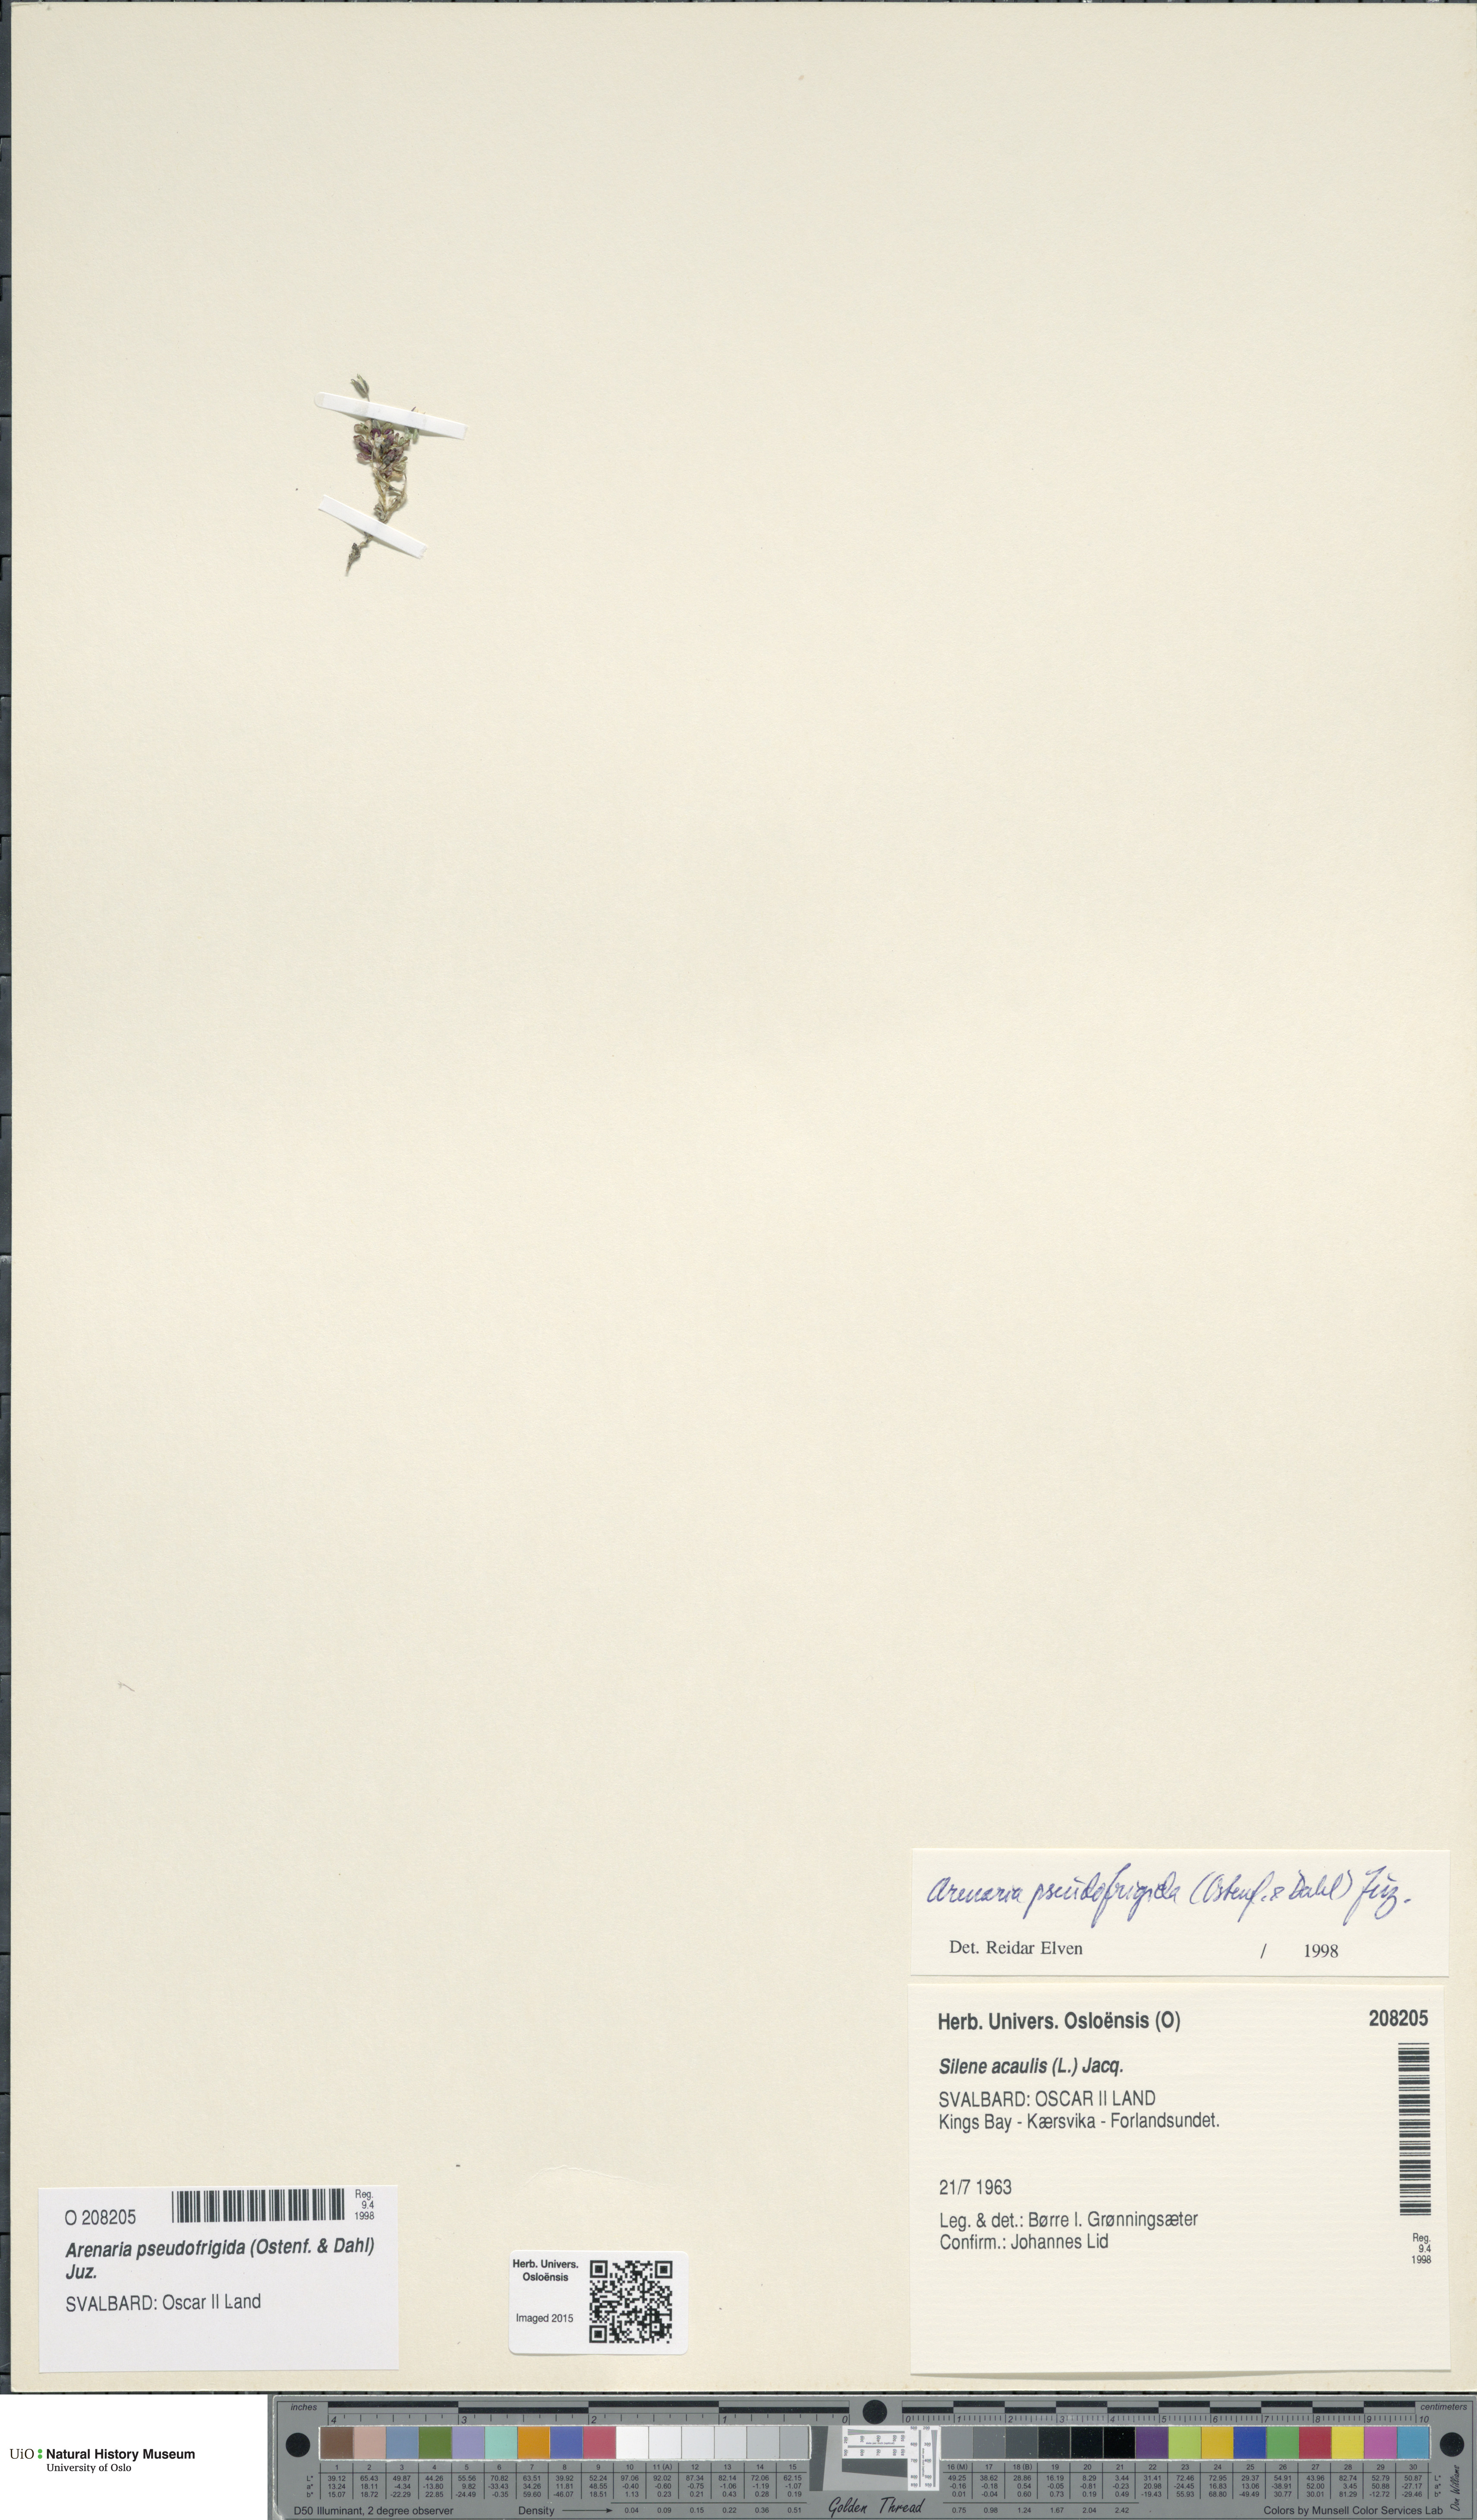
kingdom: Plantae
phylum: Tracheophyta
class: Magnoliopsida
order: Caryophyllales
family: Caryophyllaceae
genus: Arenaria
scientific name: Arenaria pseudofrigida
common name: Tundra sandwort
